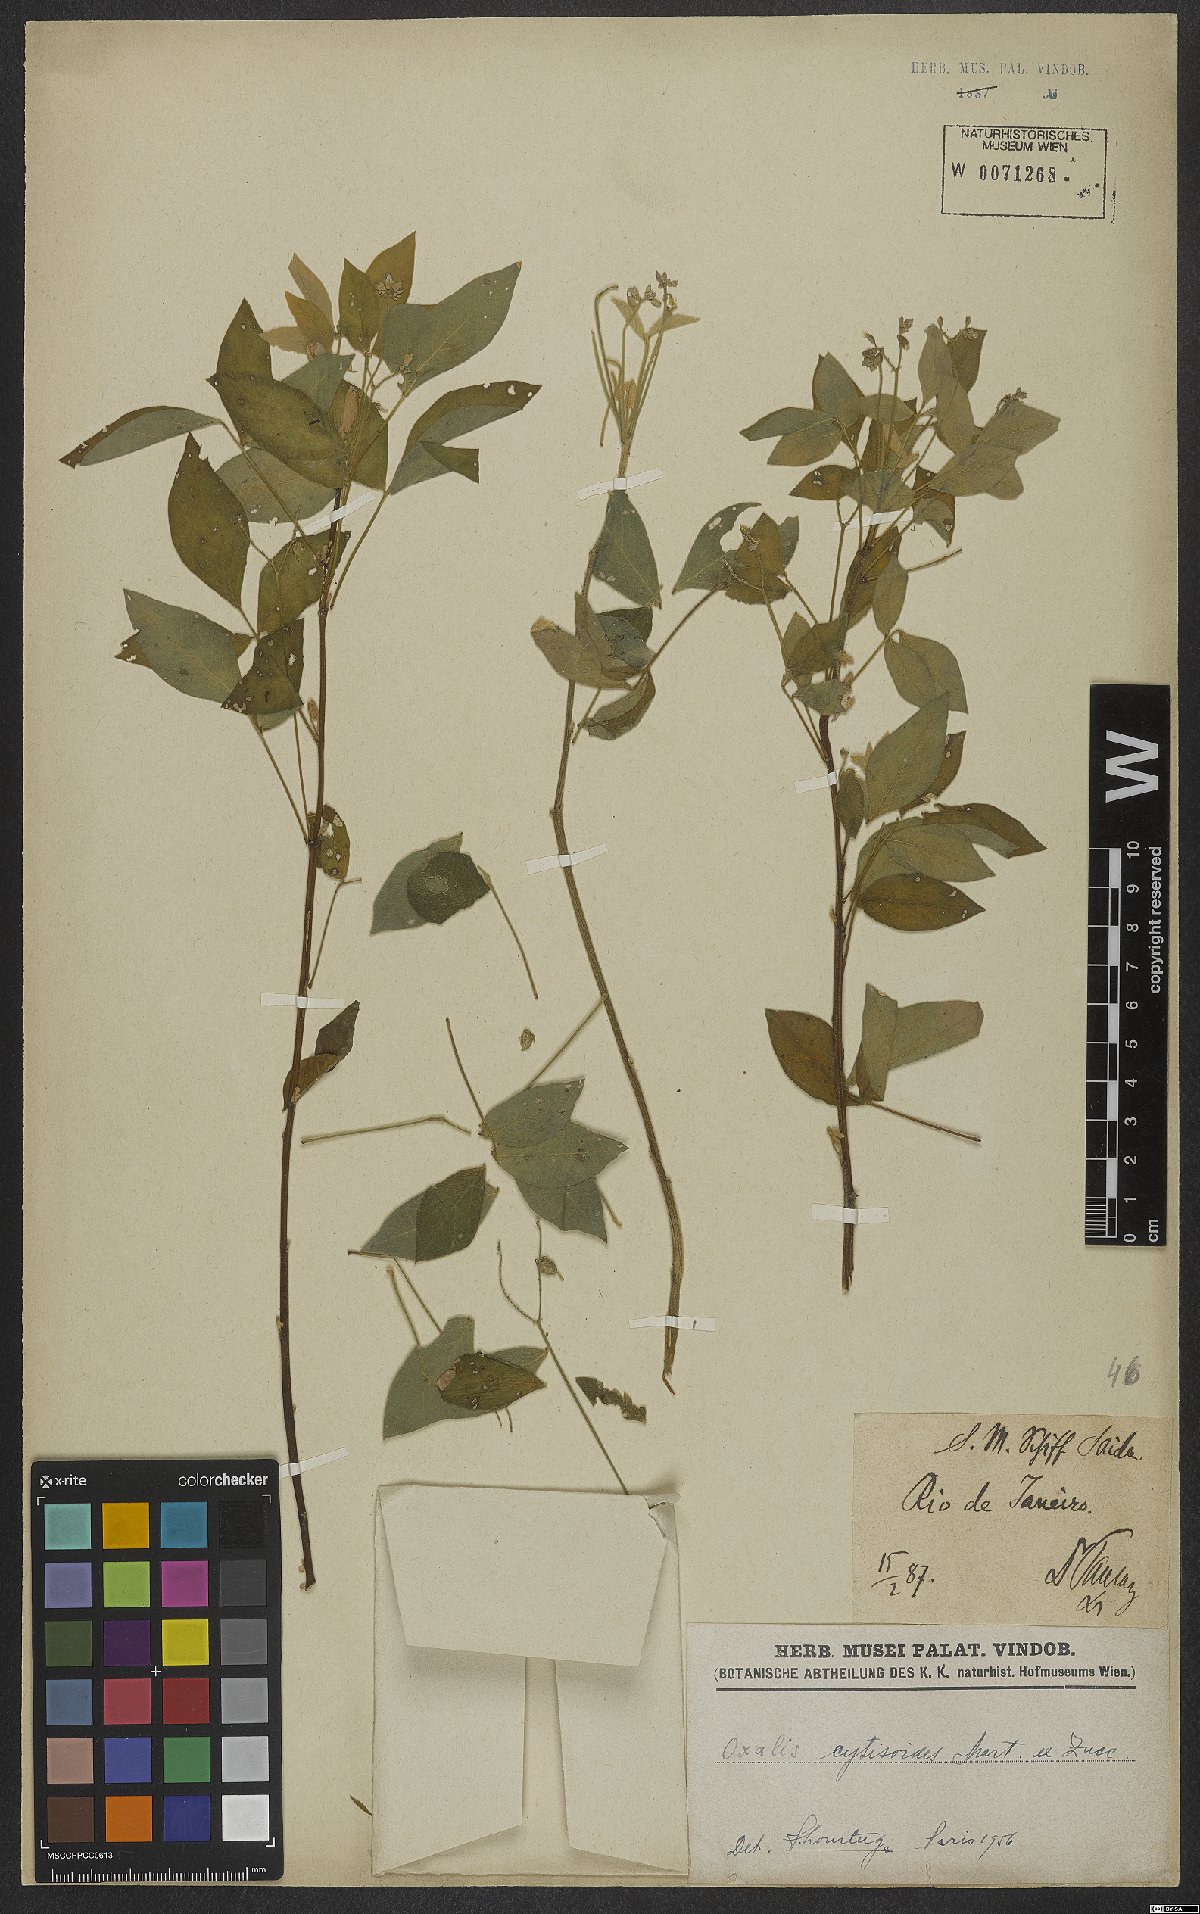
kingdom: Plantae
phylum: Tracheophyta
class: Magnoliopsida
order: Oxalidales
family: Oxalidaceae
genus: Oxalis
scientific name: Oxalis cytisoides
